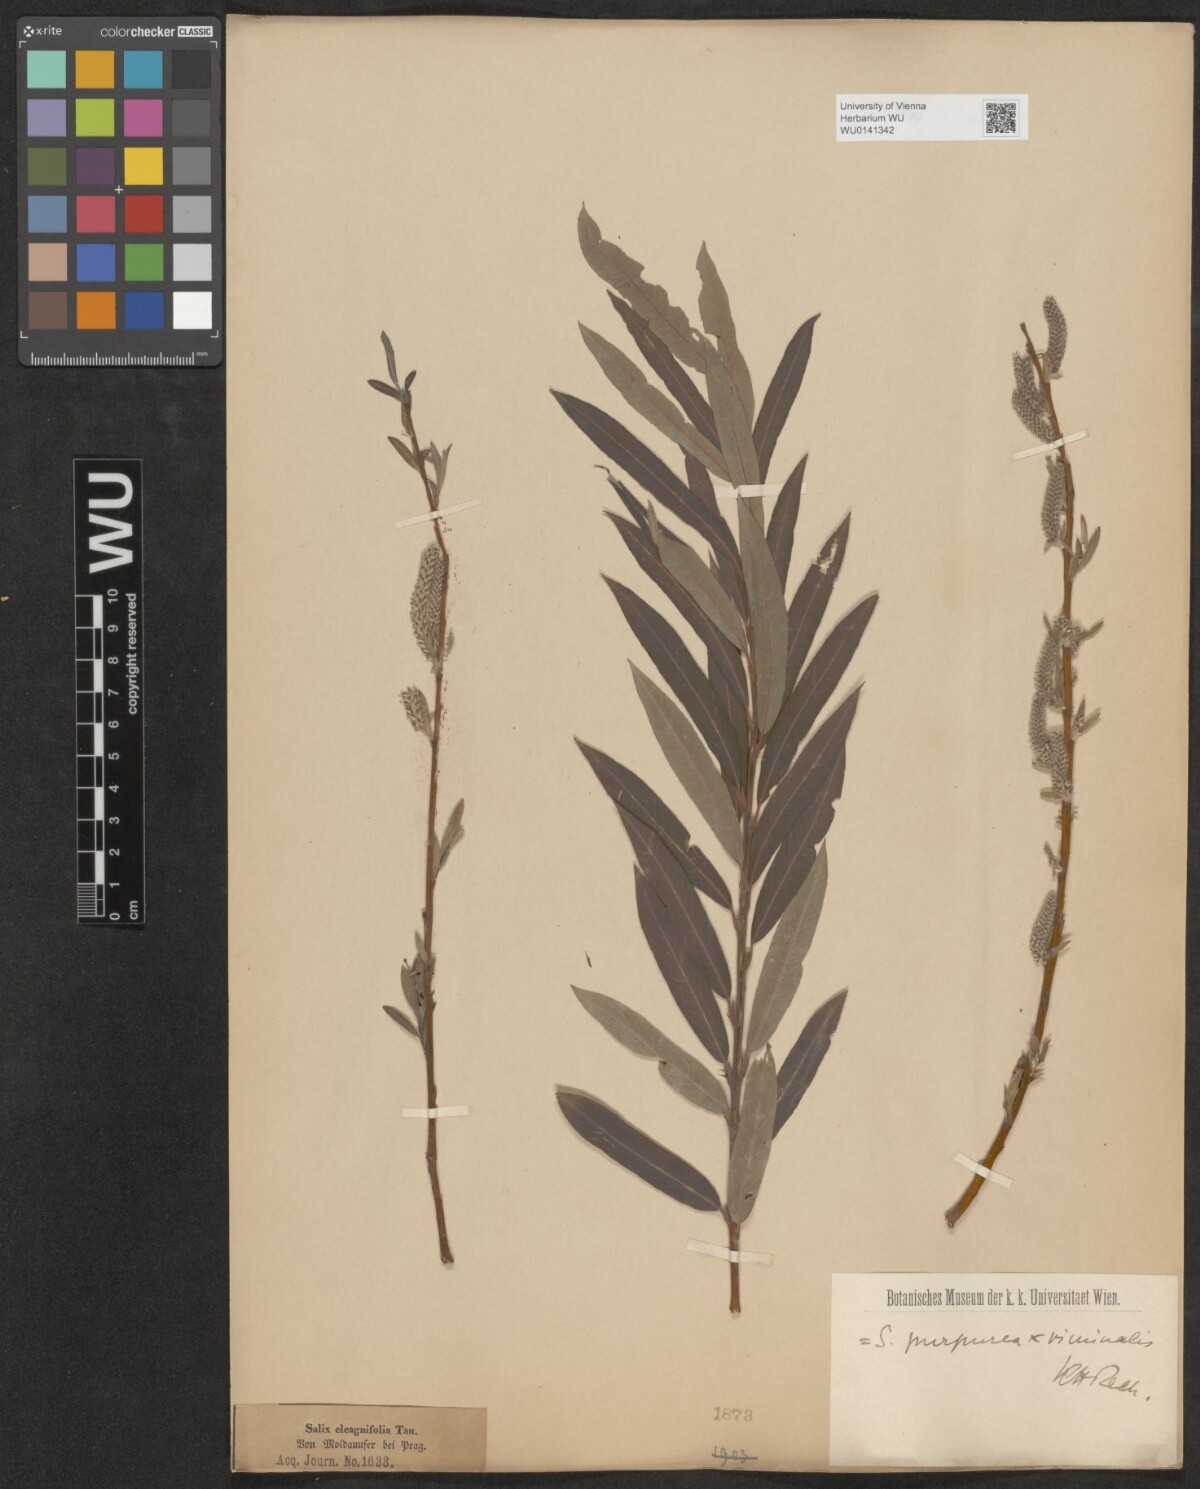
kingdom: Plantae
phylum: Tracheophyta
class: Magnoliopsida
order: Malpighiales
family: Salicaceae
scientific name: Salicaceae
